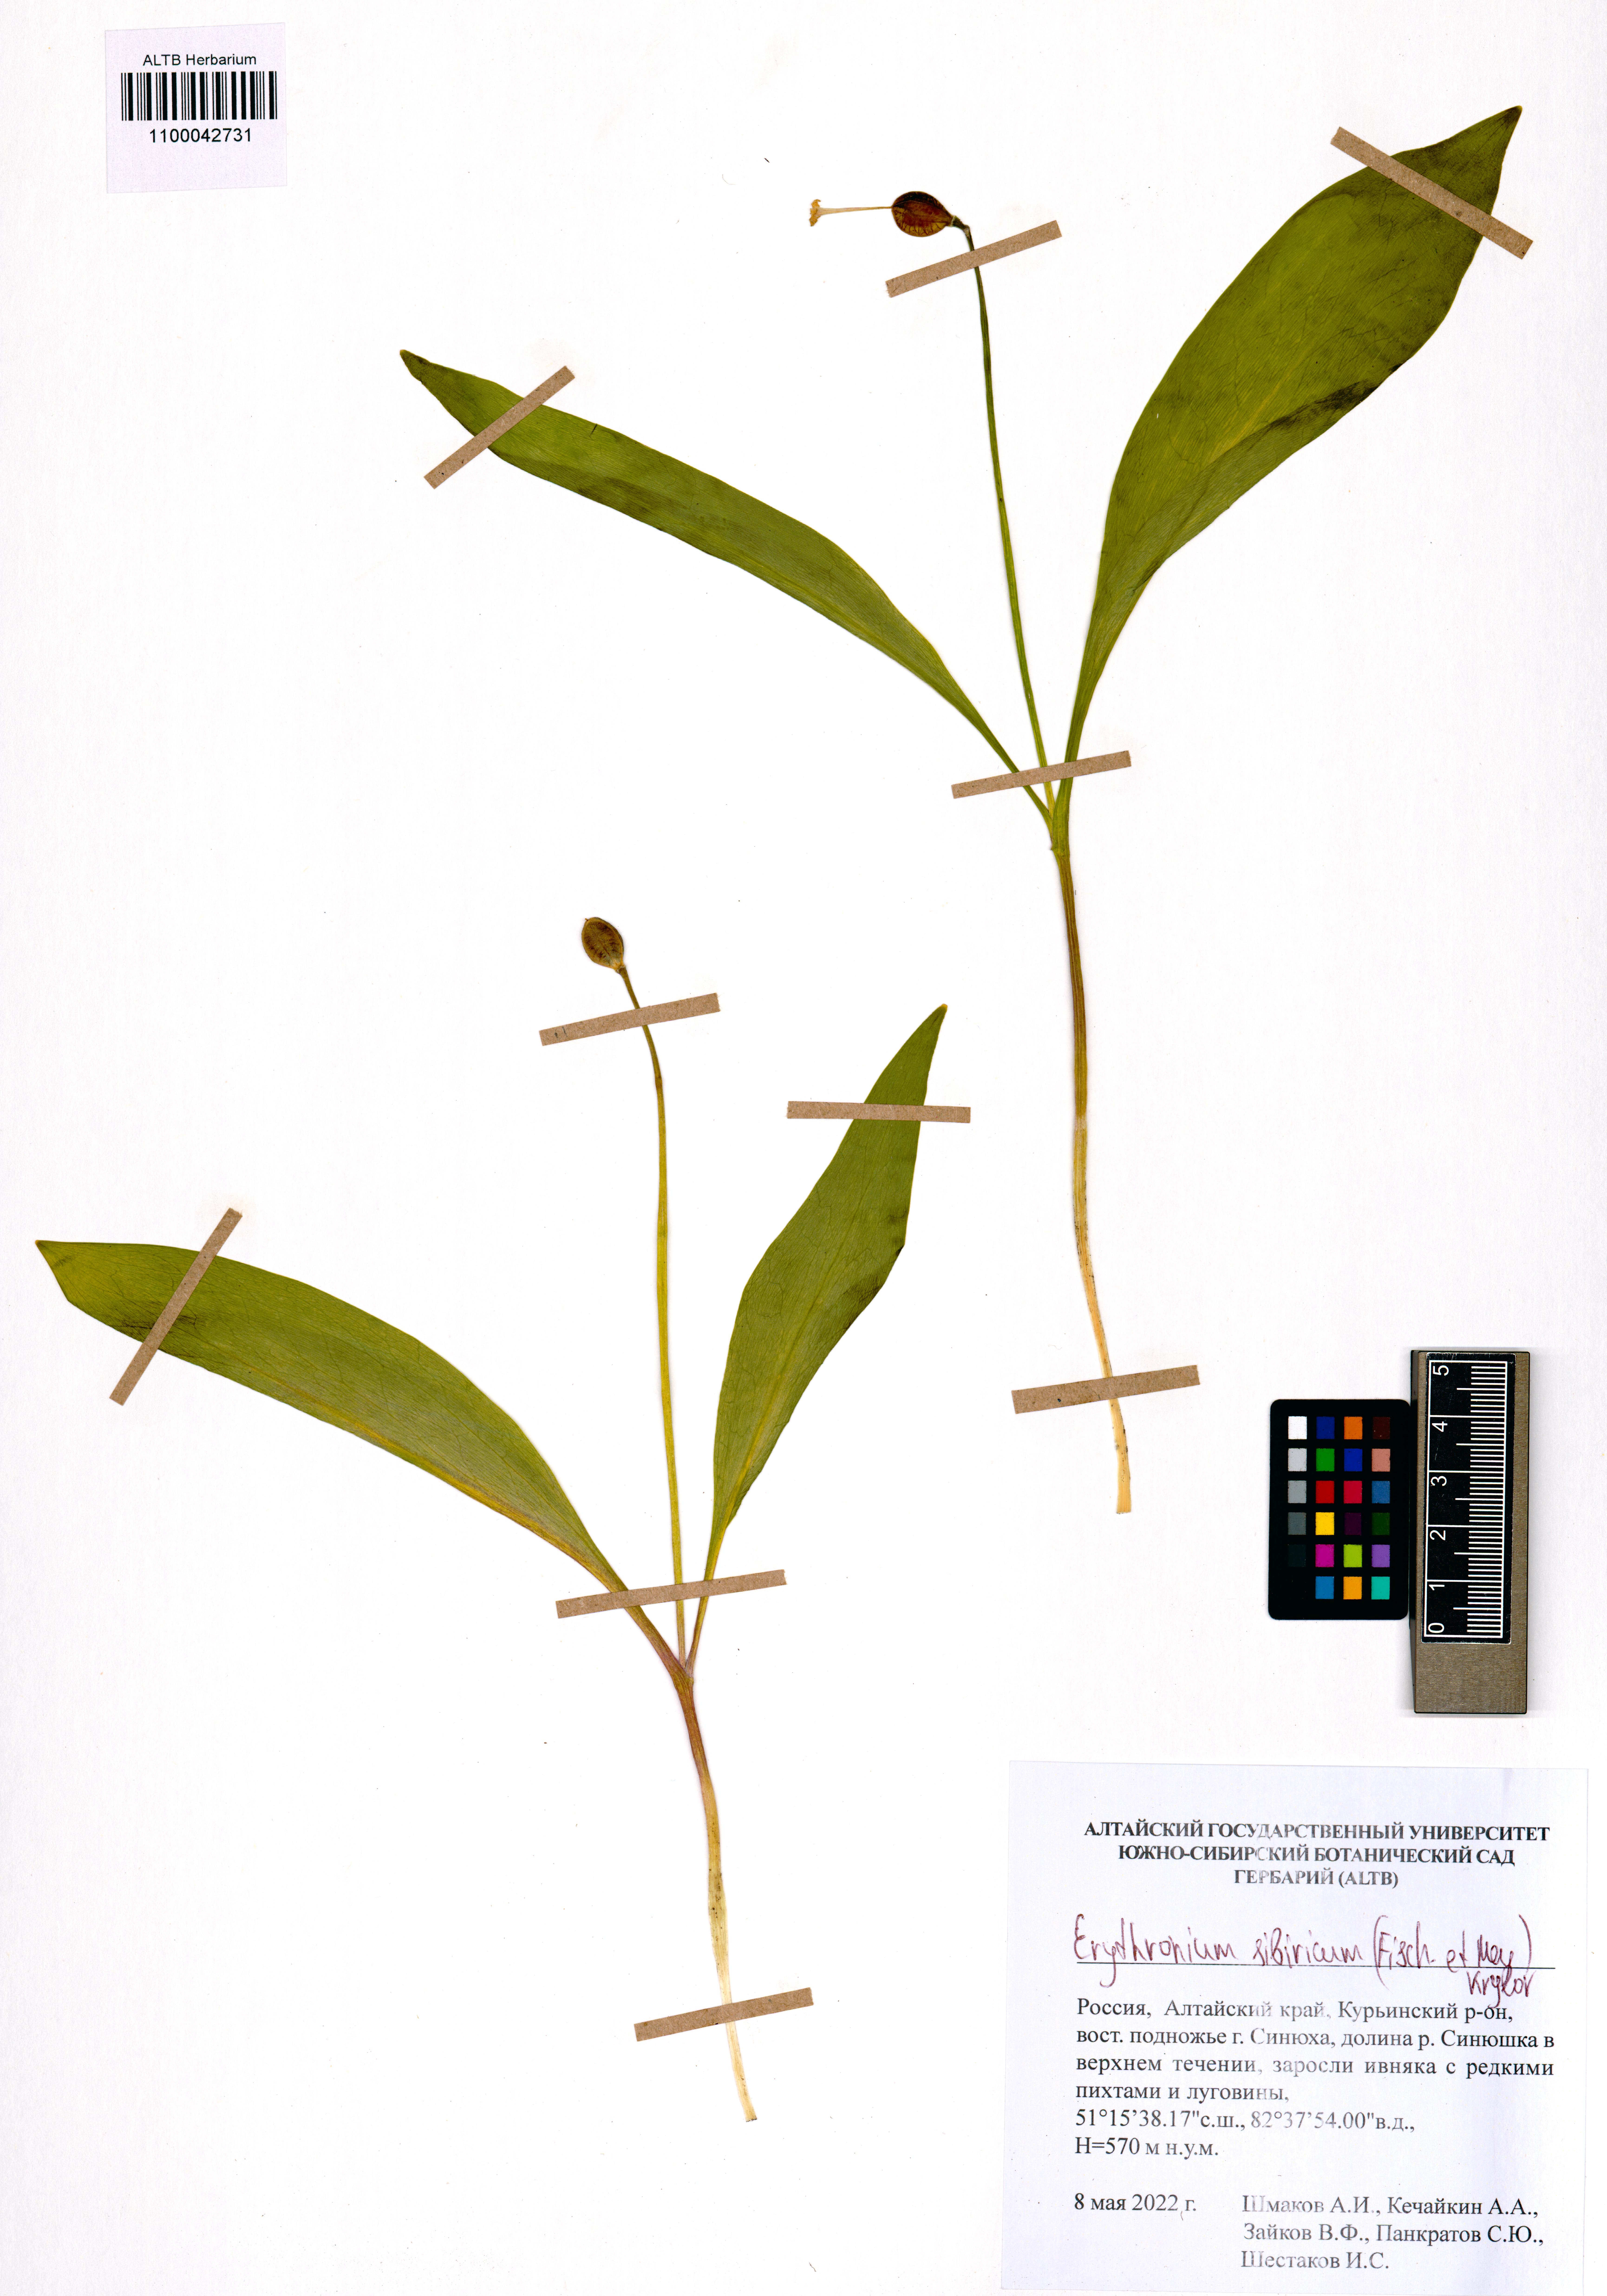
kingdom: Plantae
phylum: Tracheophyta
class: Liliopsida
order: Liliales
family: Liliaceae
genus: Erythronium
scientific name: Erythronium sibiricum
